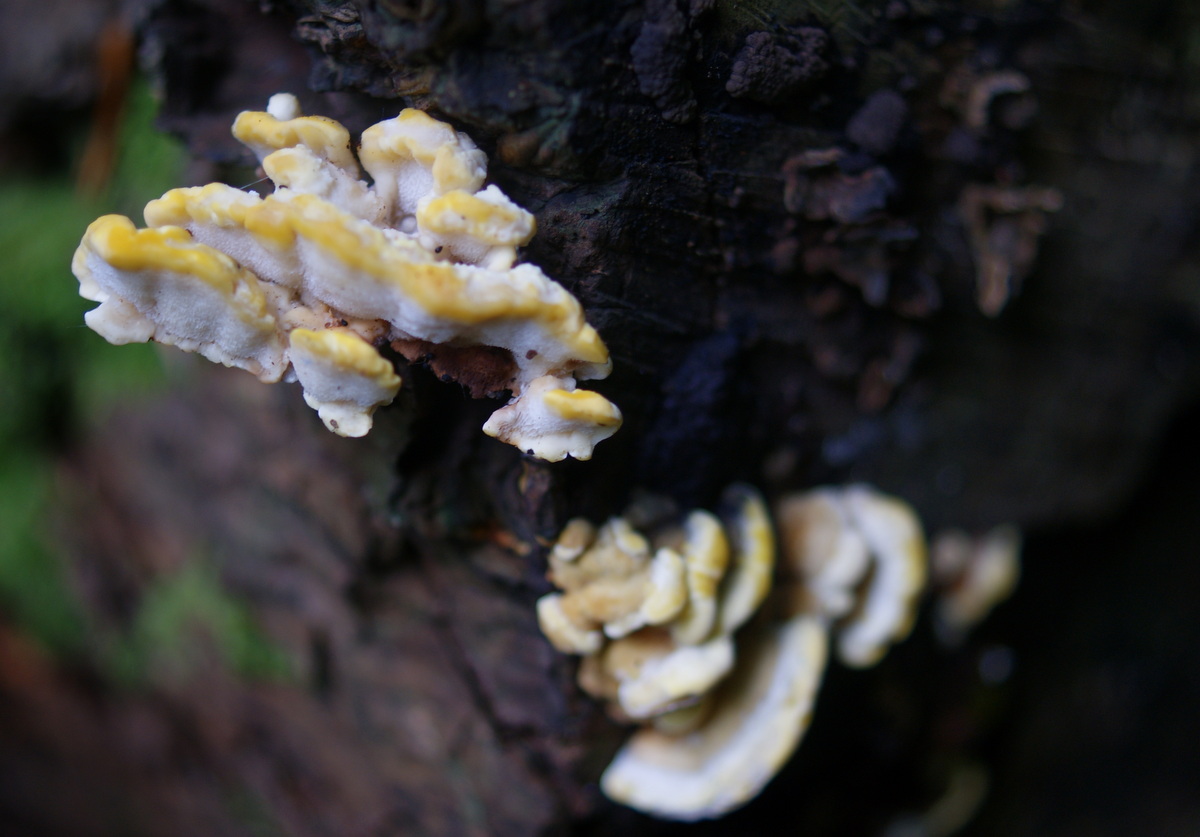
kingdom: Fungi
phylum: Basidiomycota
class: Agaricomycetes
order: Polyporales
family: Steccherinaceae
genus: Antrodiella
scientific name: Antrodiella serpula
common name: gulrandet elastikporesvamp
